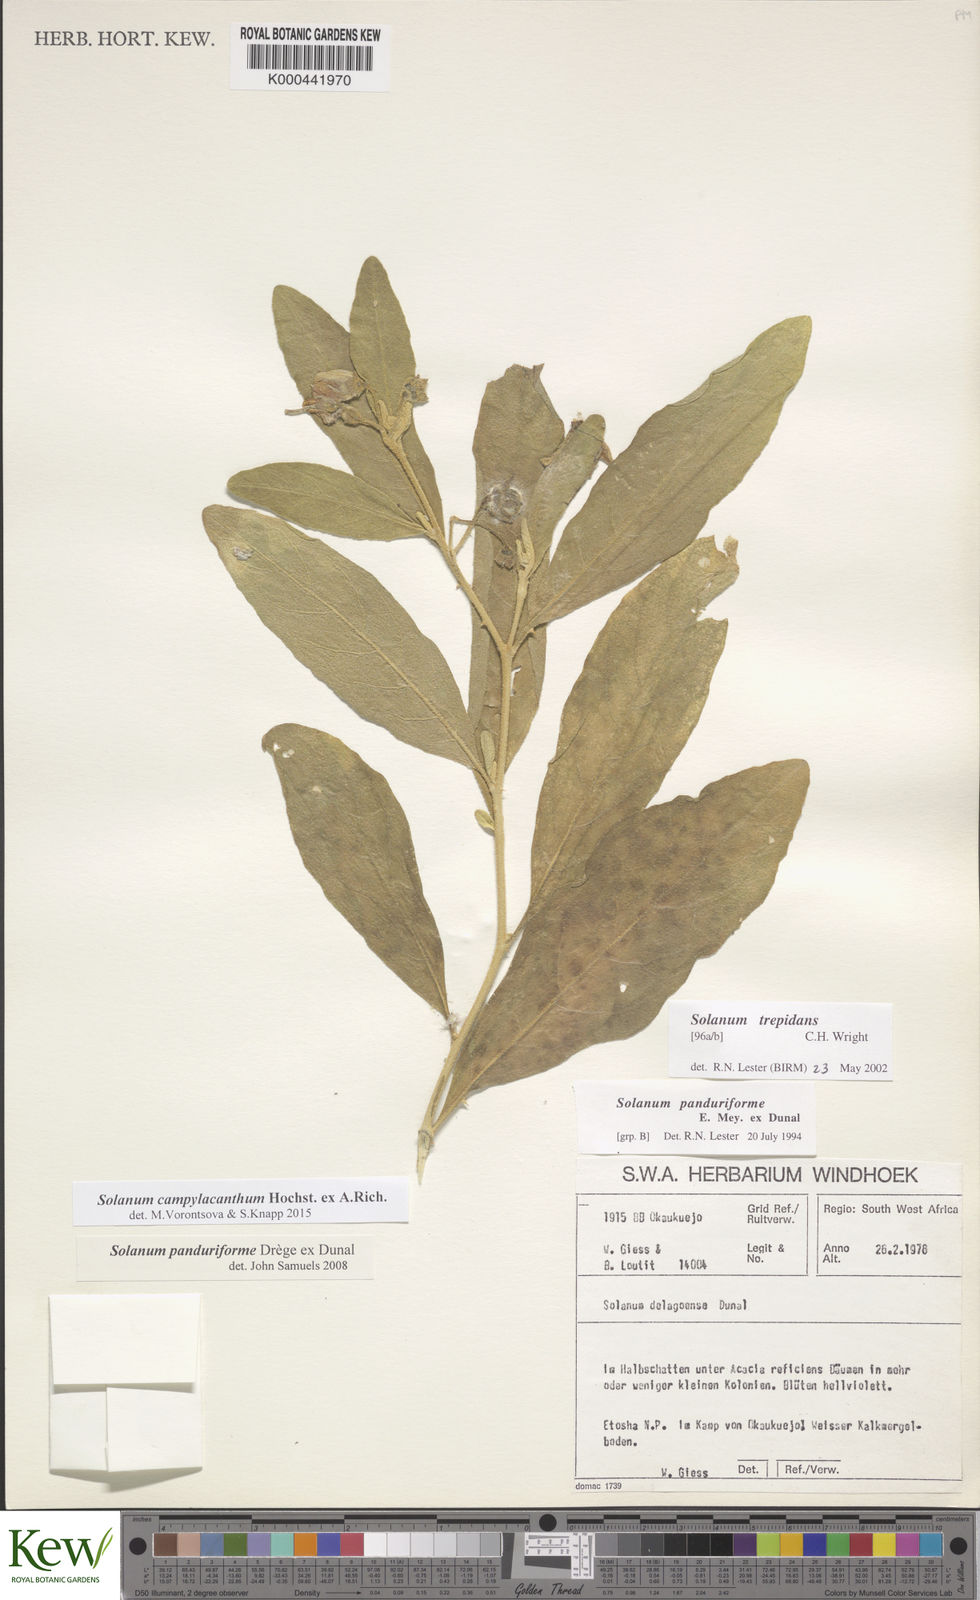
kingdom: Plantae
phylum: Tracheophyta
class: Magnoliopsida
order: Solanales
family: Solanaceae
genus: Solanum
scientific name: Solanum campylacanthum
